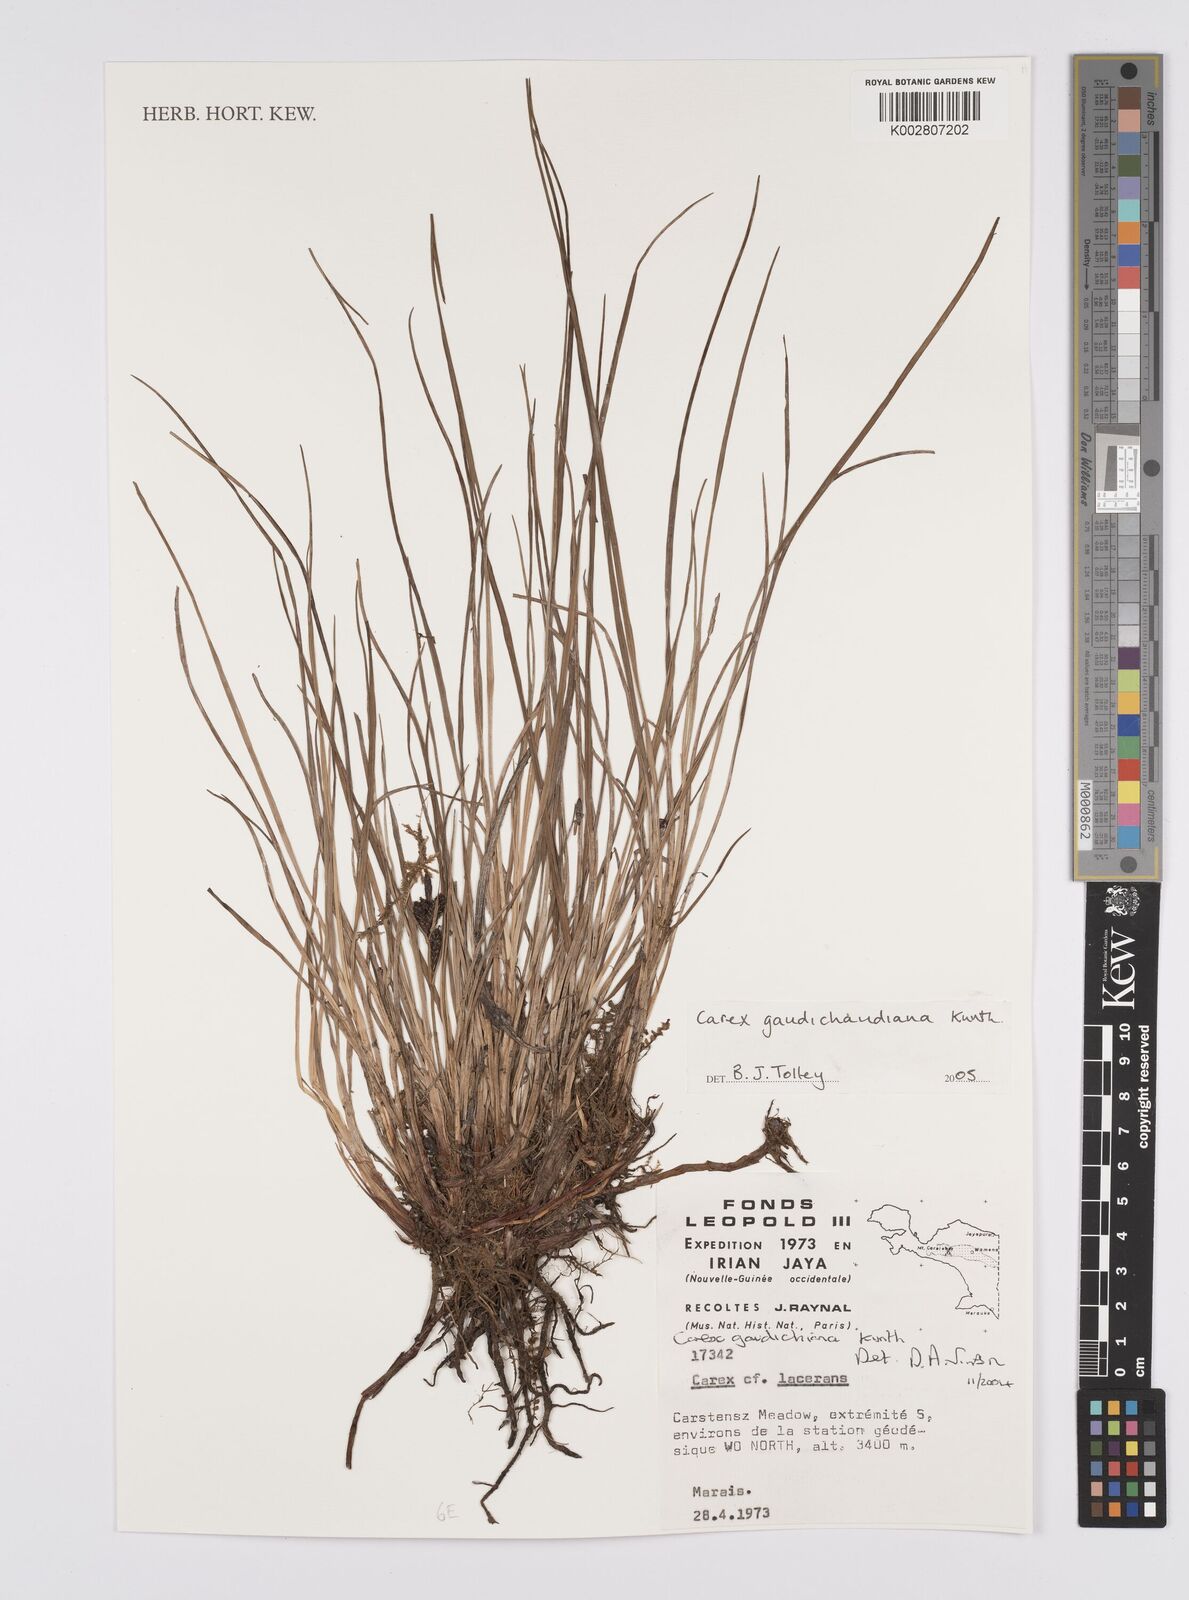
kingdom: Plantae
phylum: Tracheophyta
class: Liliopsida
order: Poales
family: Cyperaceae
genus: Carex
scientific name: Carex gaudichaudiana
